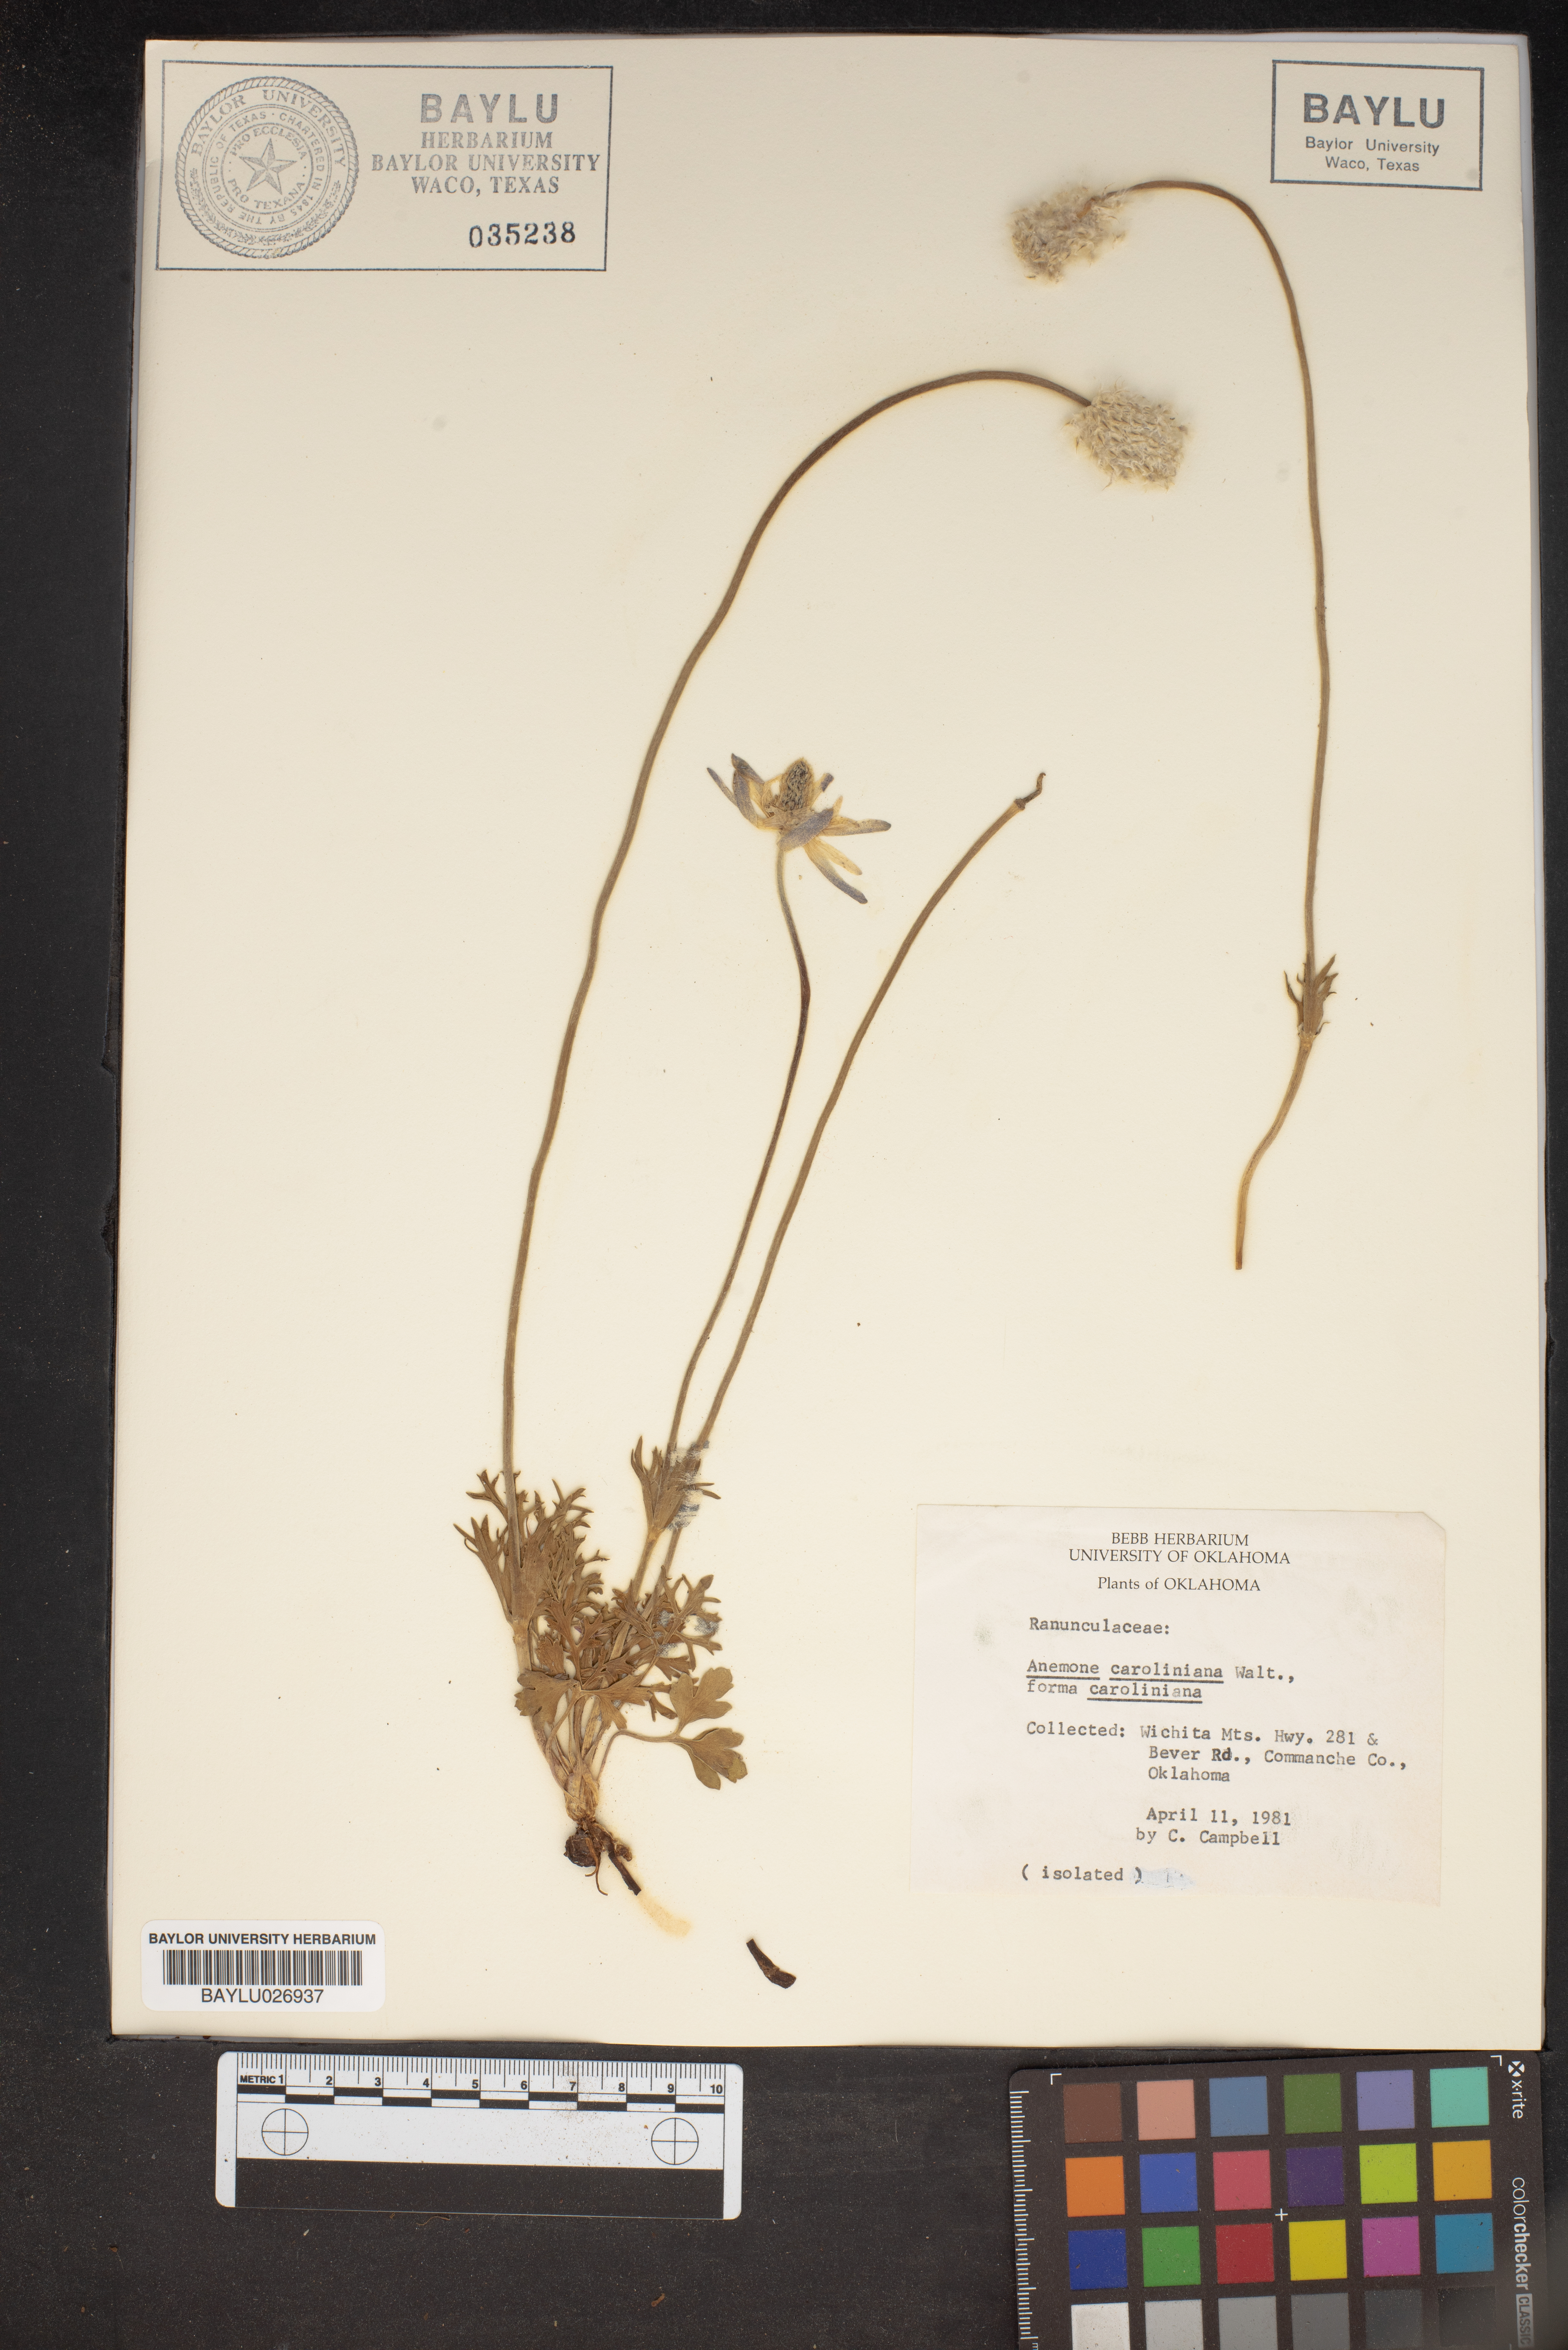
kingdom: Plantae
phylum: Tracheophyta
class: Magnoliopsida
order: Ranunculales
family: Ranunculaceae
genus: Anemone
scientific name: Anemone caroliniana
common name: Carolina anemone
